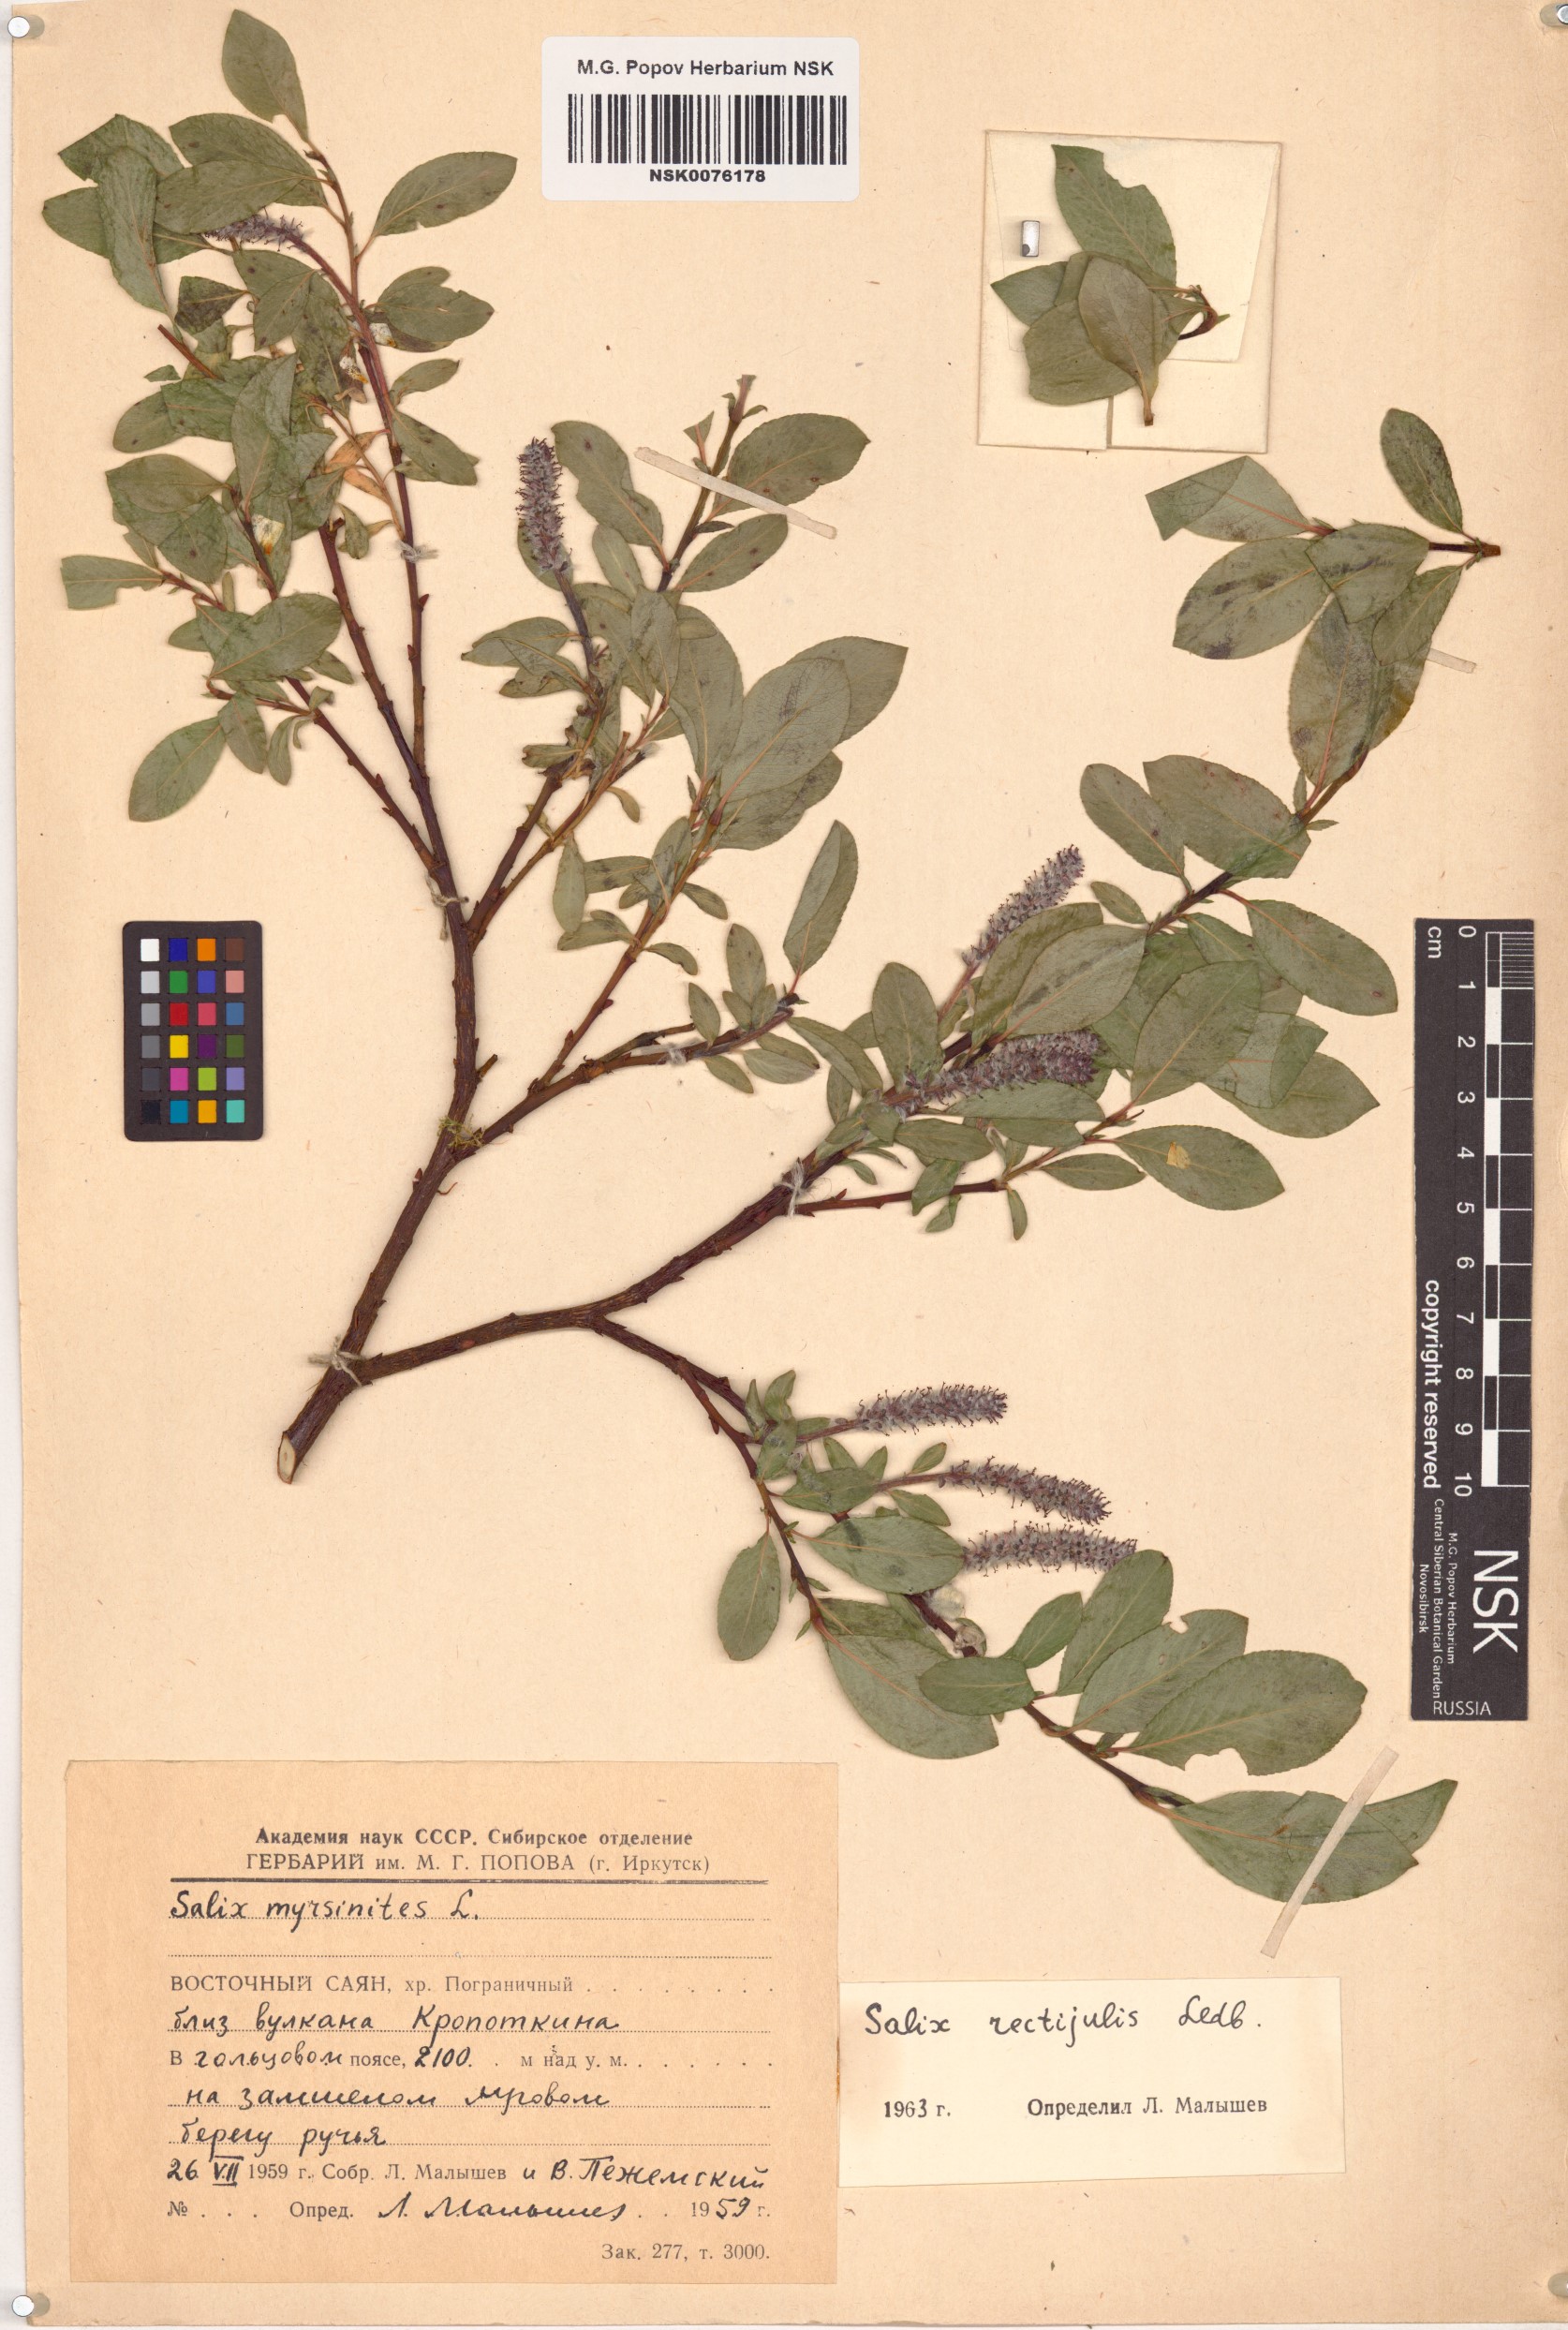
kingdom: Plantae
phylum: Tracheophyta
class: Magnoliopsida
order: Malpighiales
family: Salicaceae
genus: Salix
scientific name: Salix rectijulis
